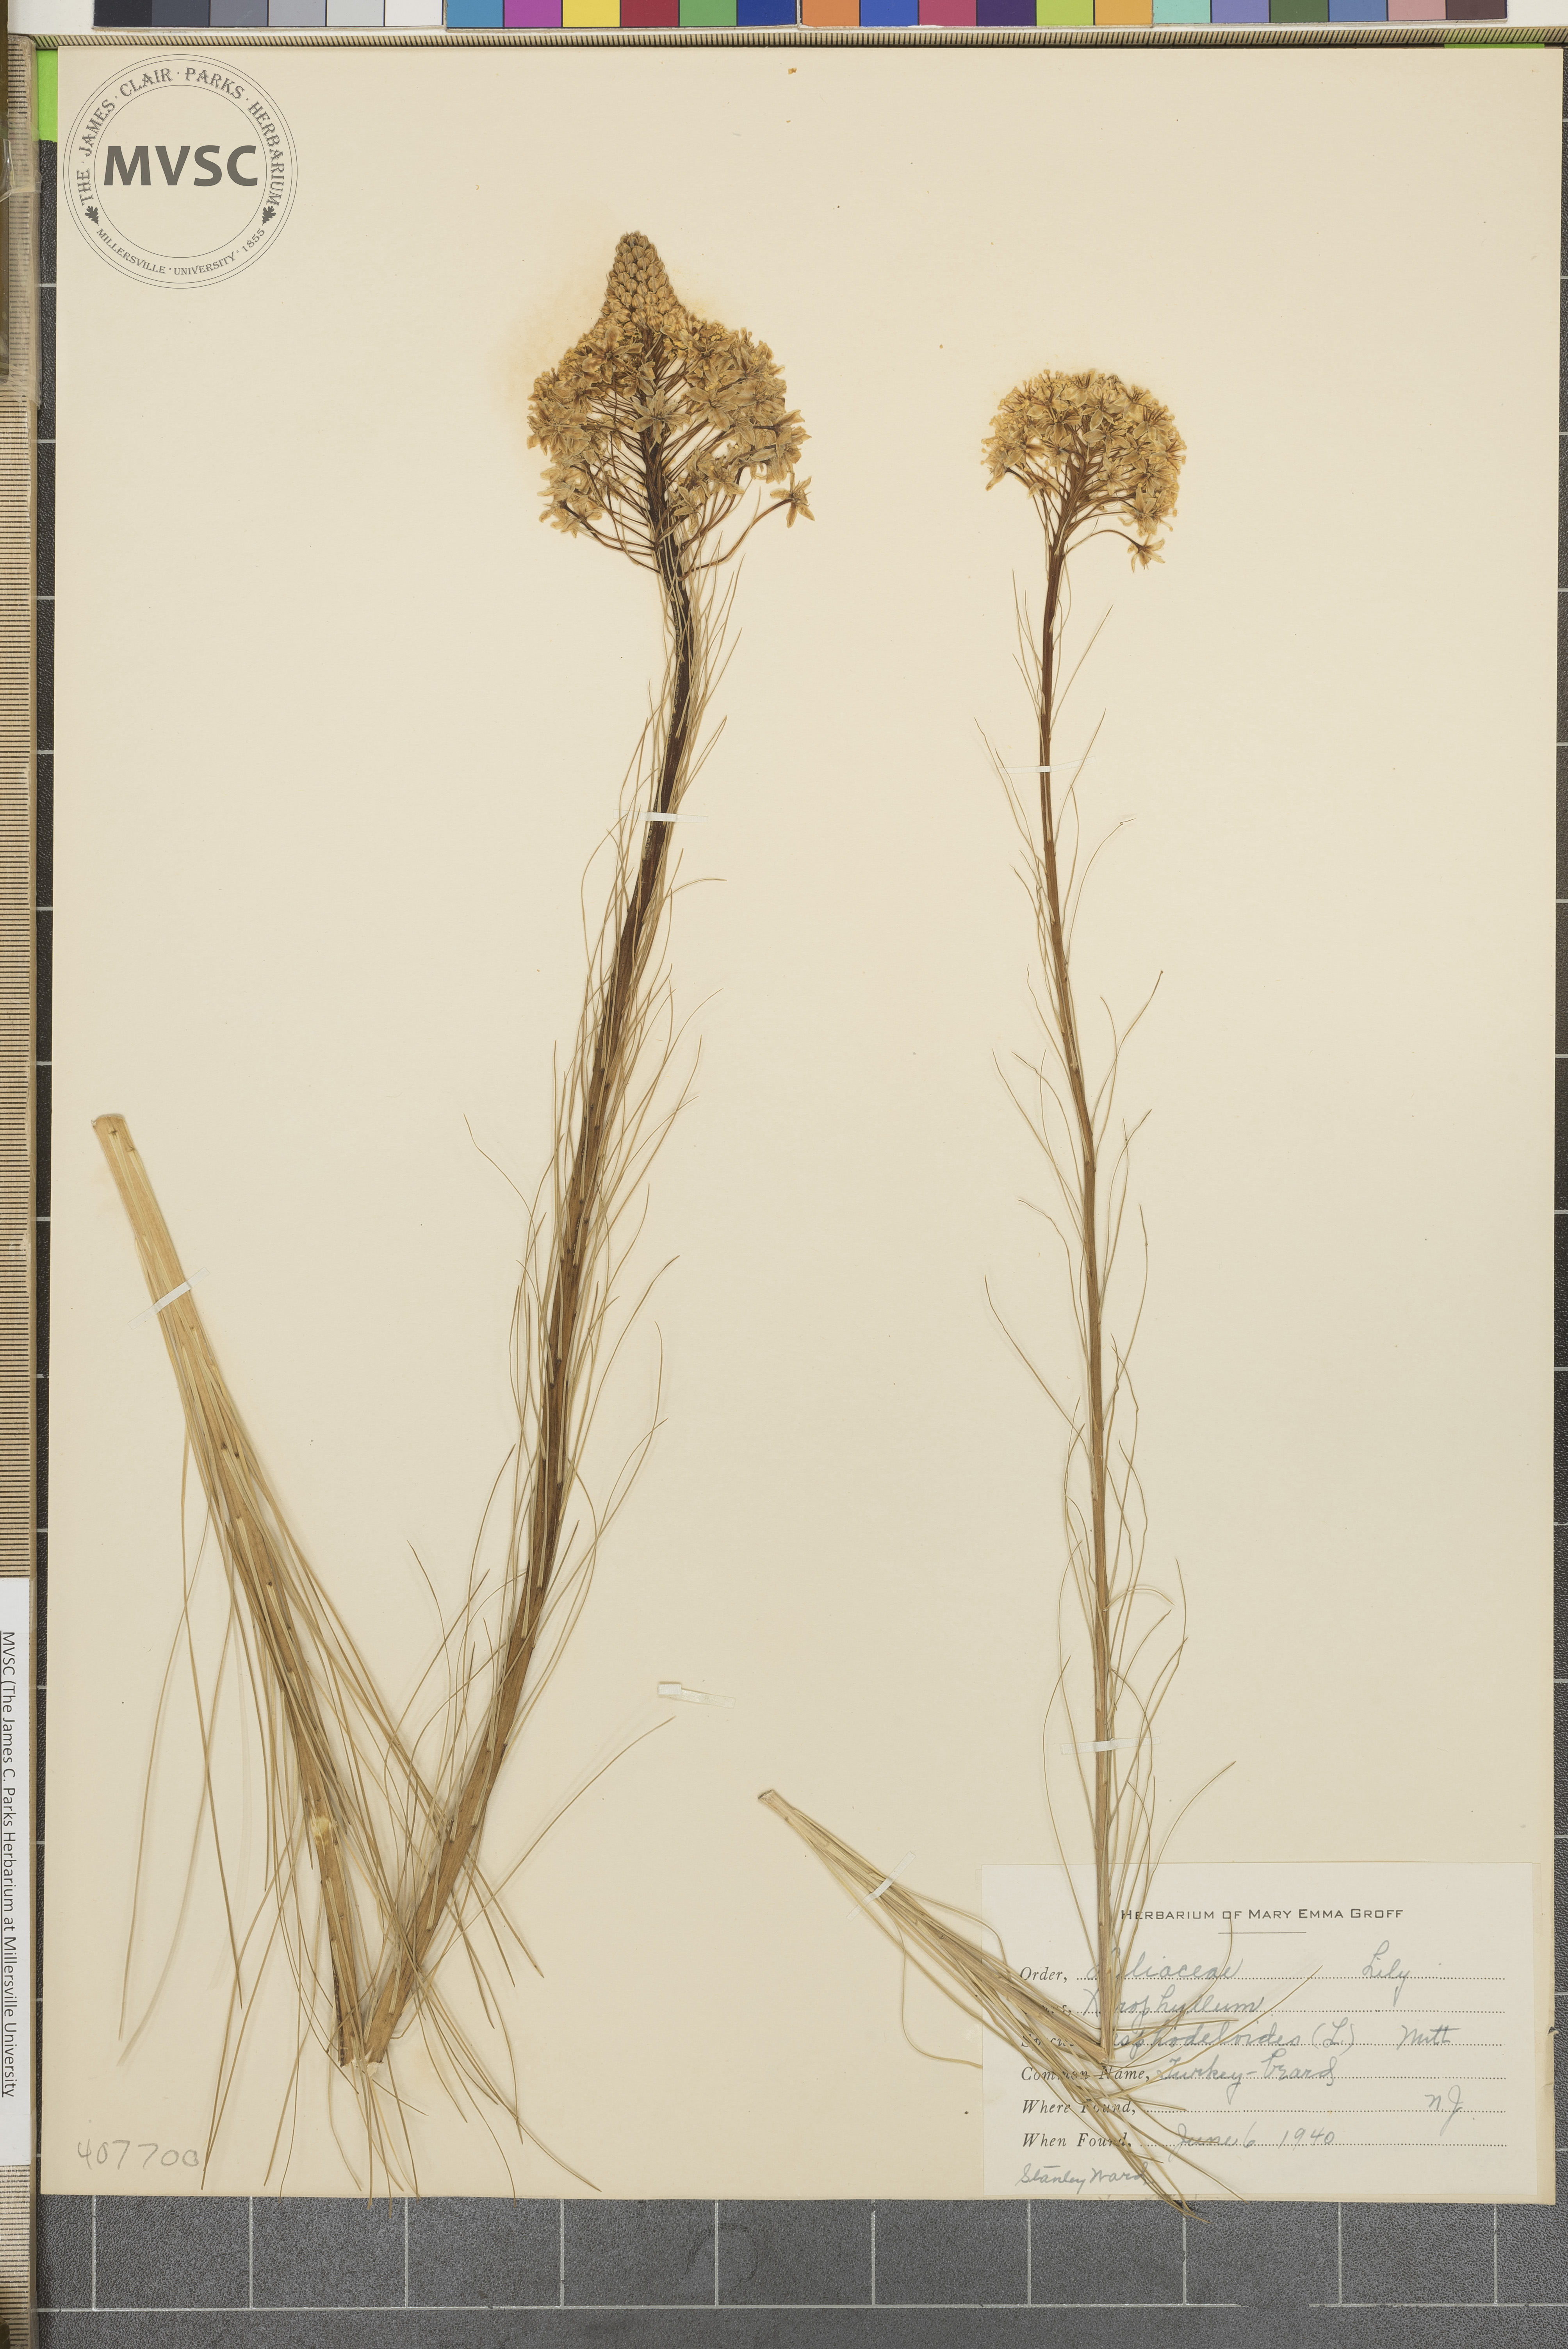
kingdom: Plantae
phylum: Tracheophyta
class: Liliopsida
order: Liliales
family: Melanthiaceae
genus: Xerophyllum
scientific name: Xerophyllum asphodeloides
